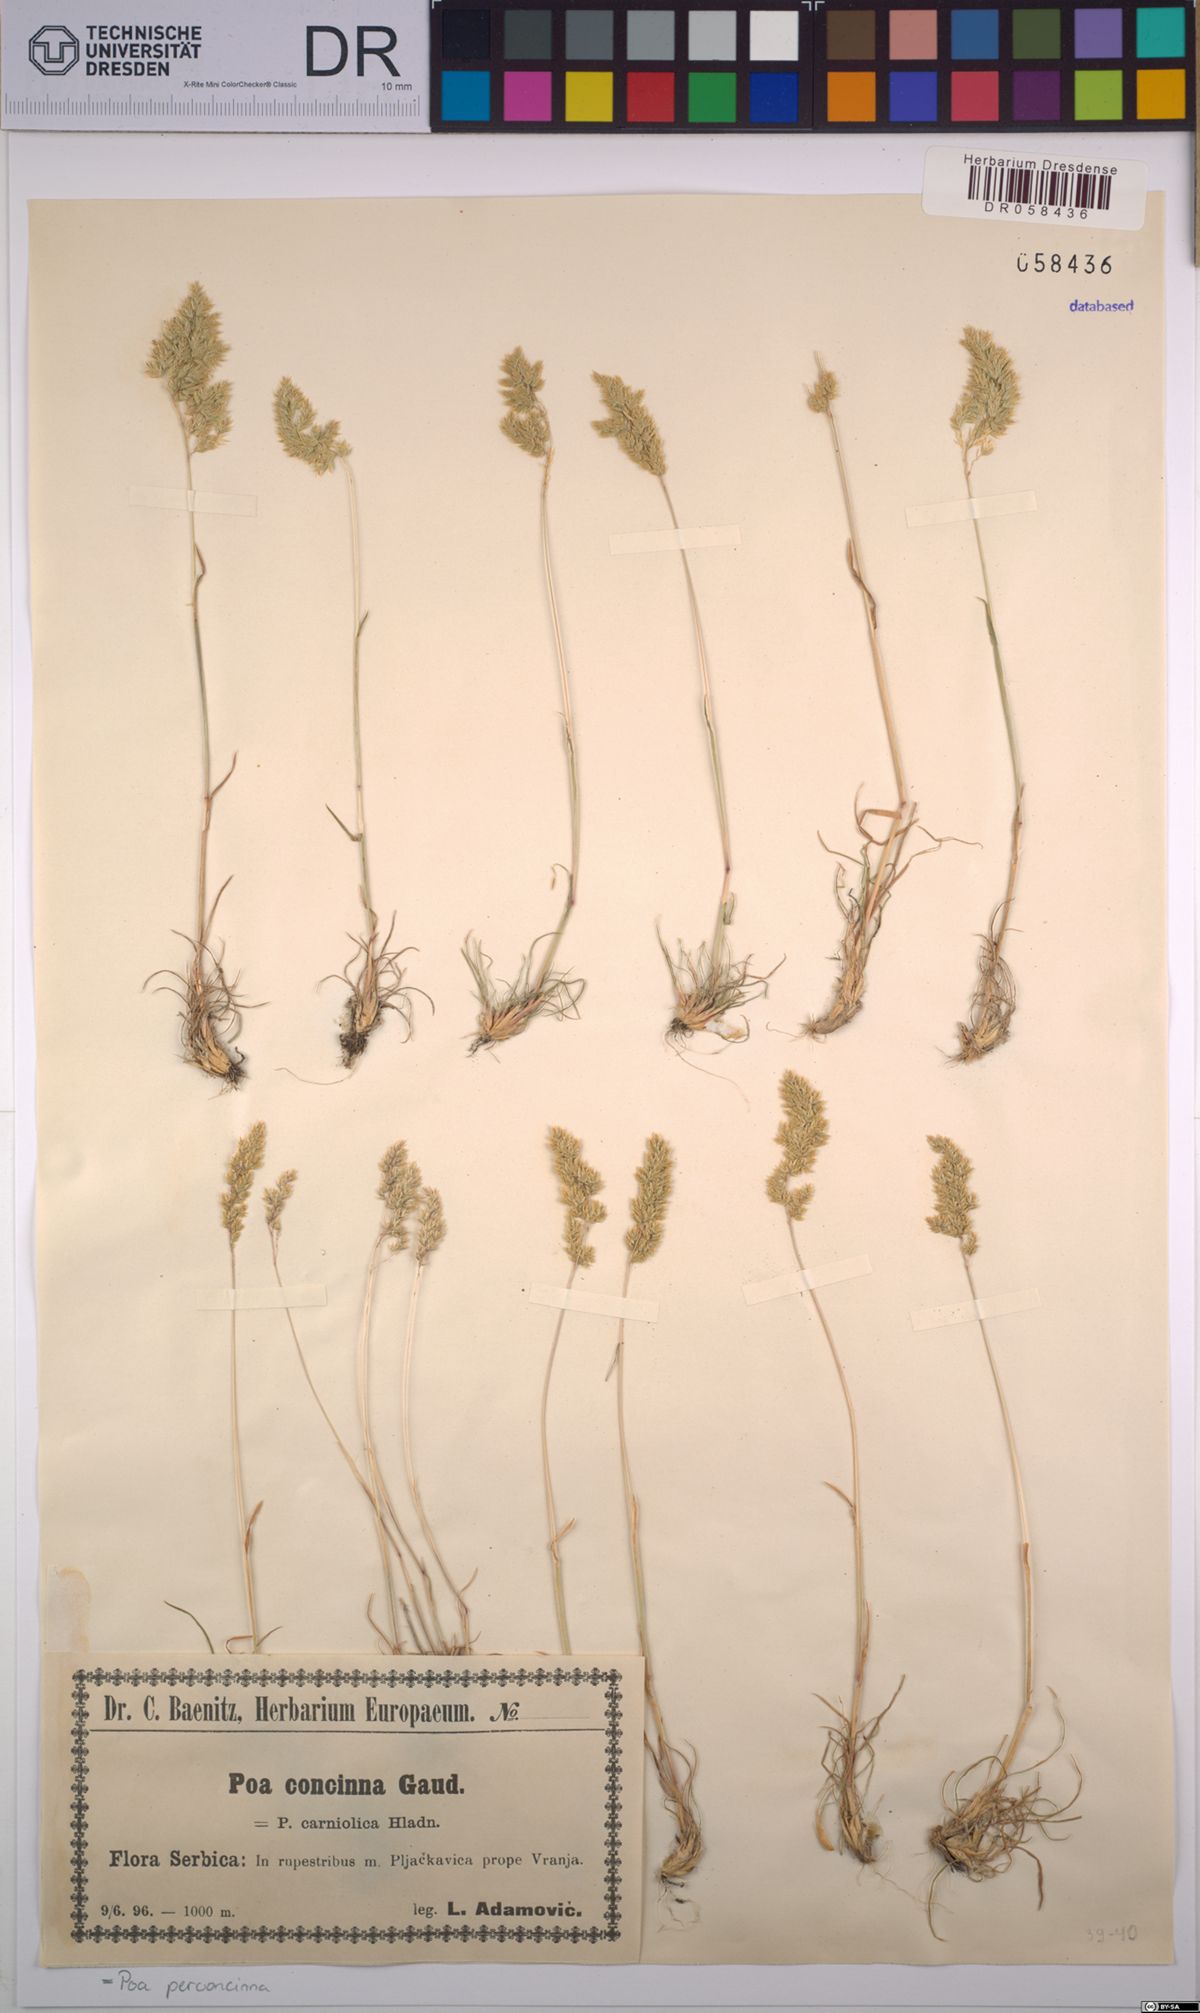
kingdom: Plantae
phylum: Tracheophyta
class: Liliopsida
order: Poales
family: Poaceae
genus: Poa
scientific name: Poa perconcinna
